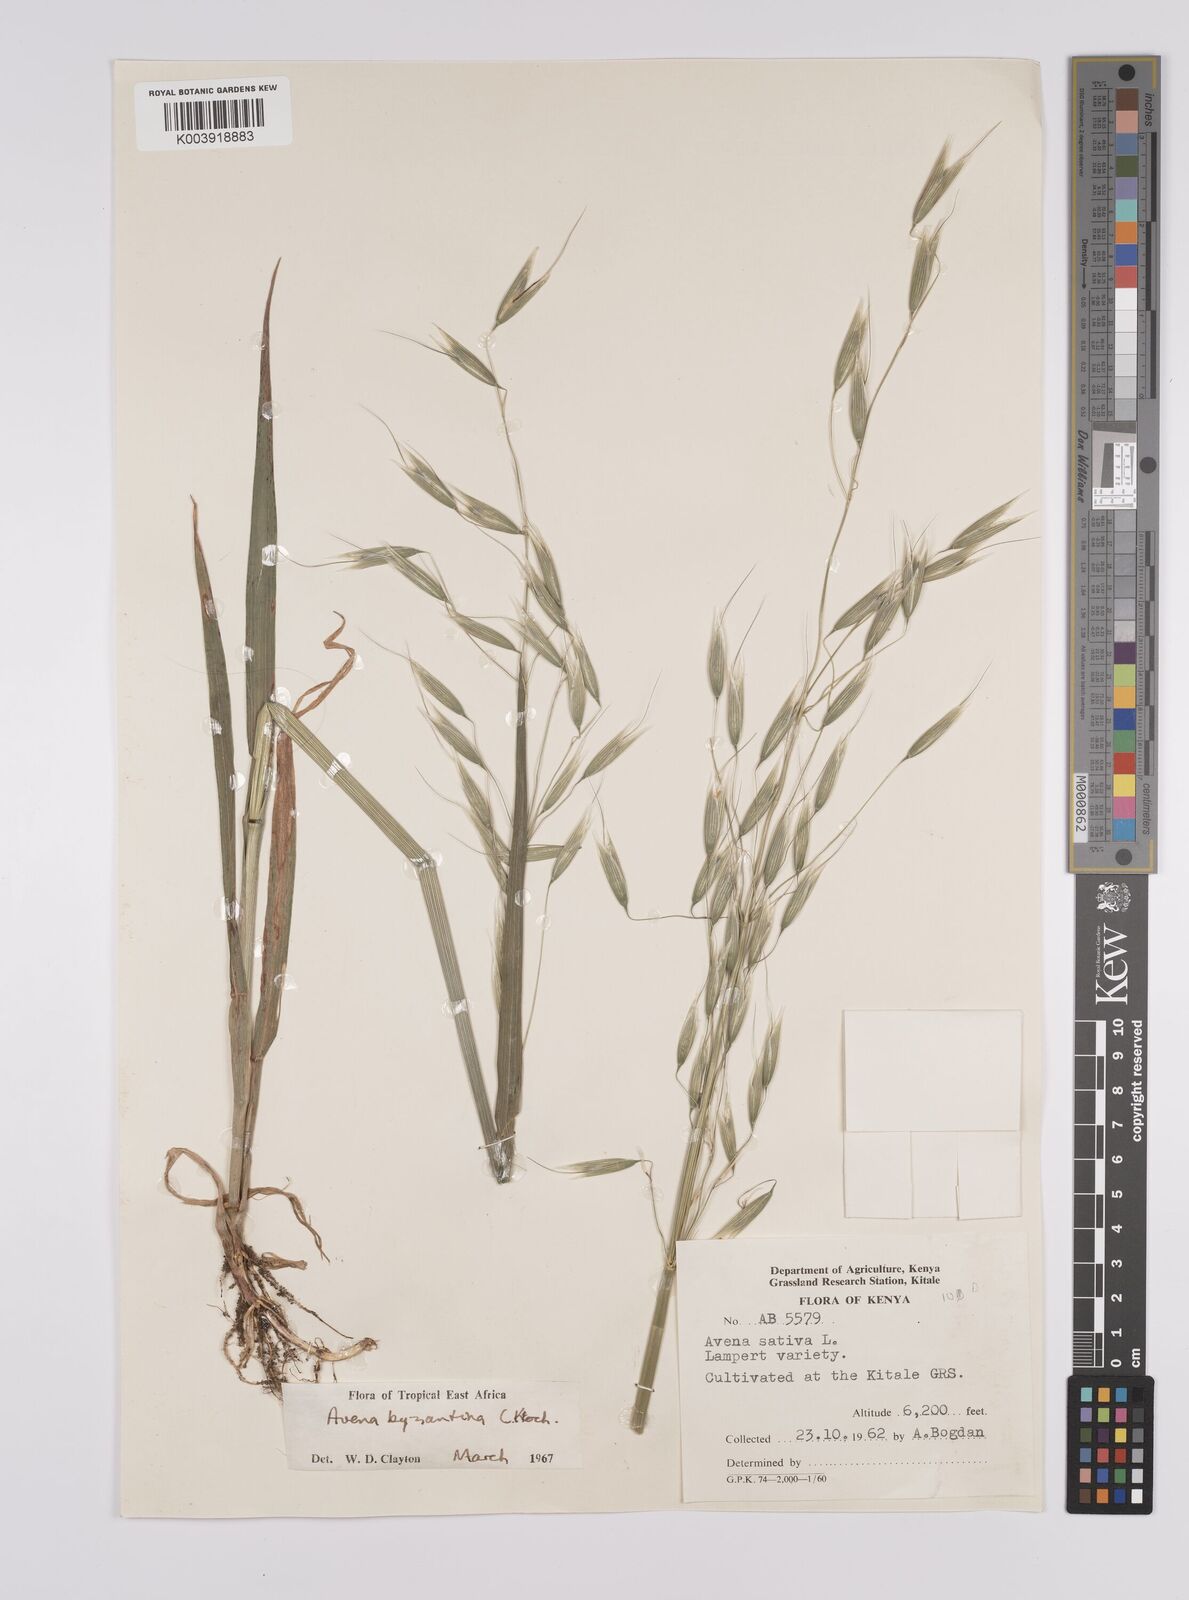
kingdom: Plantae
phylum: Tracheophyta
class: Liliopsida
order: Poales
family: Poaceae
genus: Avena
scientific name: Avena byzantina
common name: Algerian oat
